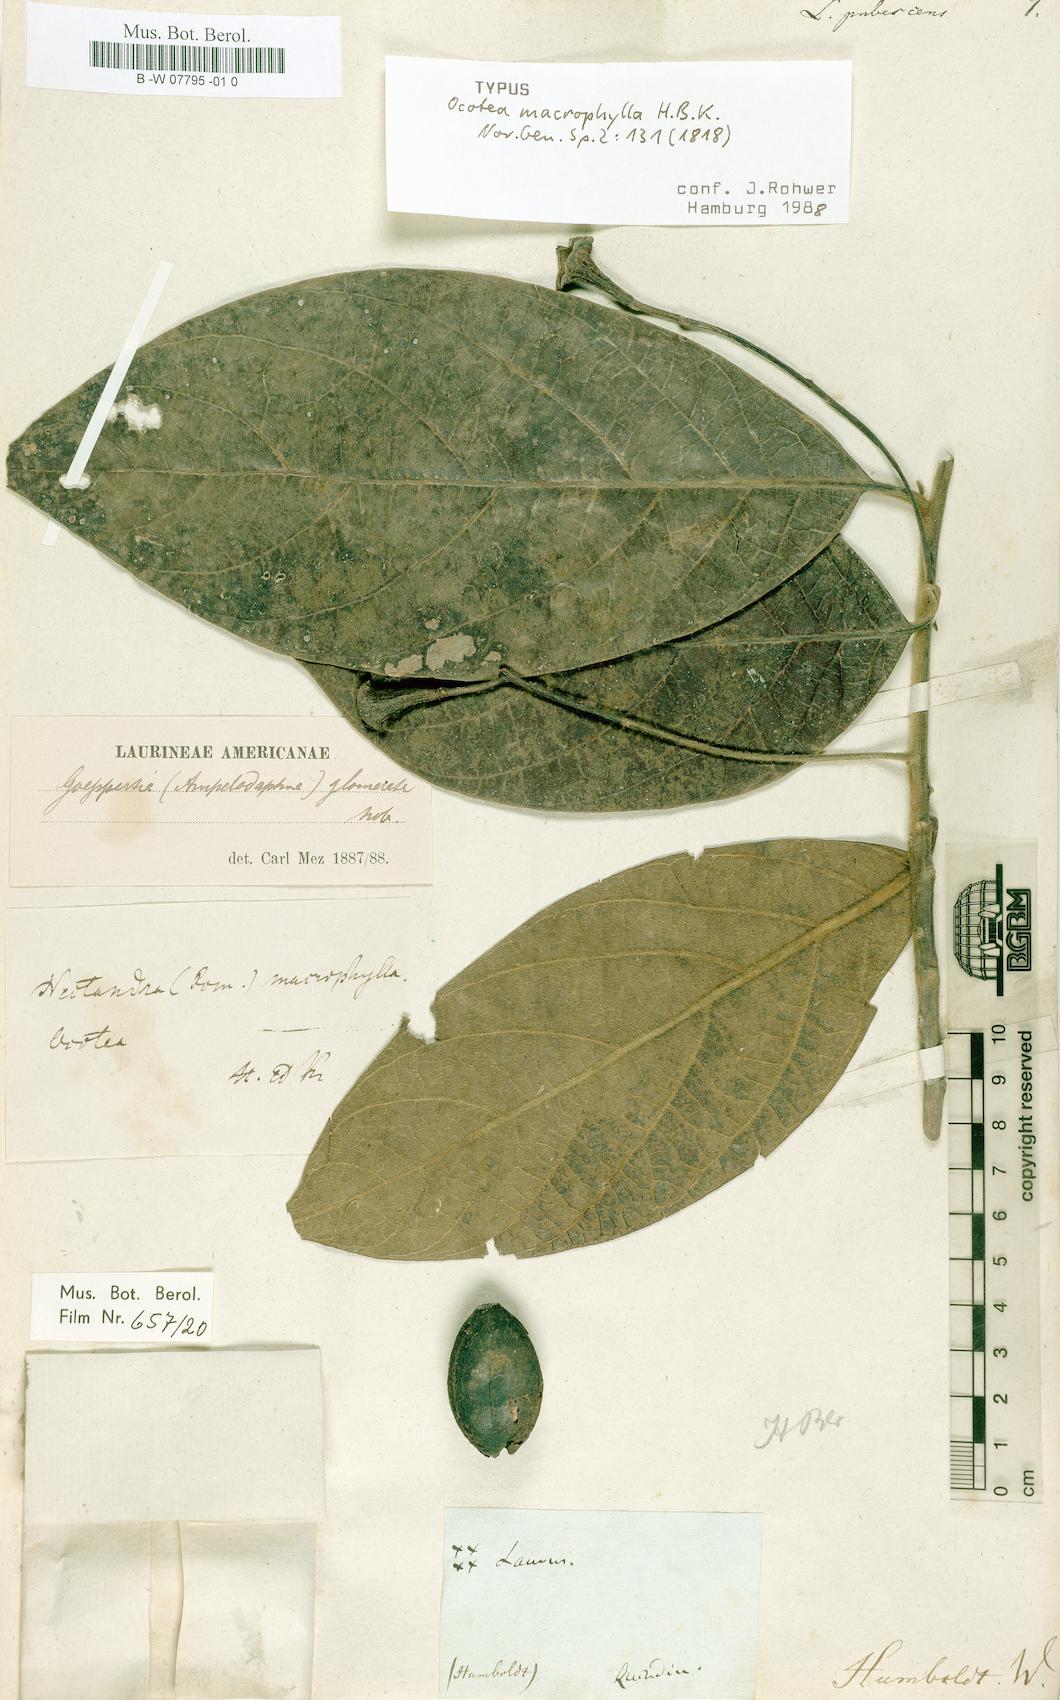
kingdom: Plantae
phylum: Tracheophyta
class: Magnoliopsida
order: Laurales
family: Lauraceae
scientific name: Lauraceae
